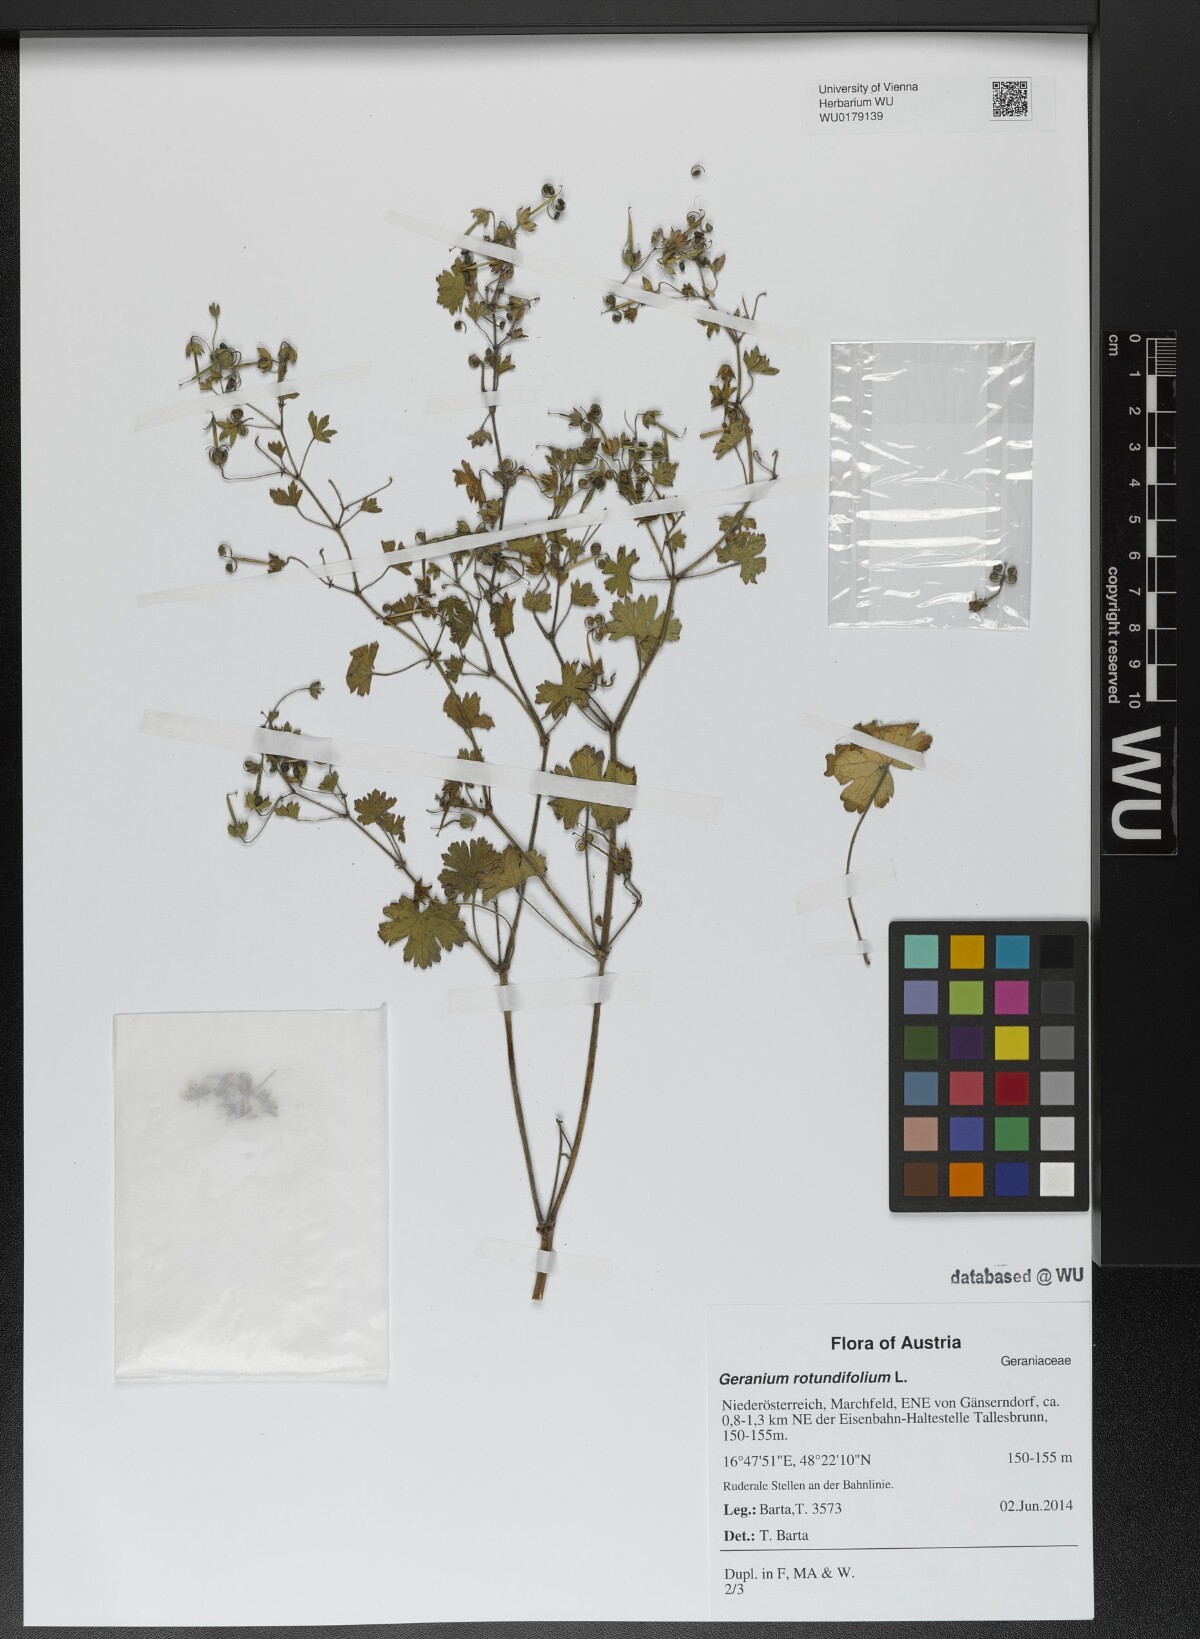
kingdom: Plantae
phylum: Tracheophyta
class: Magnoliopsida
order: Geraniales
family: Geraniaceae
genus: Geranium
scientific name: Geranium rotundifolium
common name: Round-leaved crane's-bill
